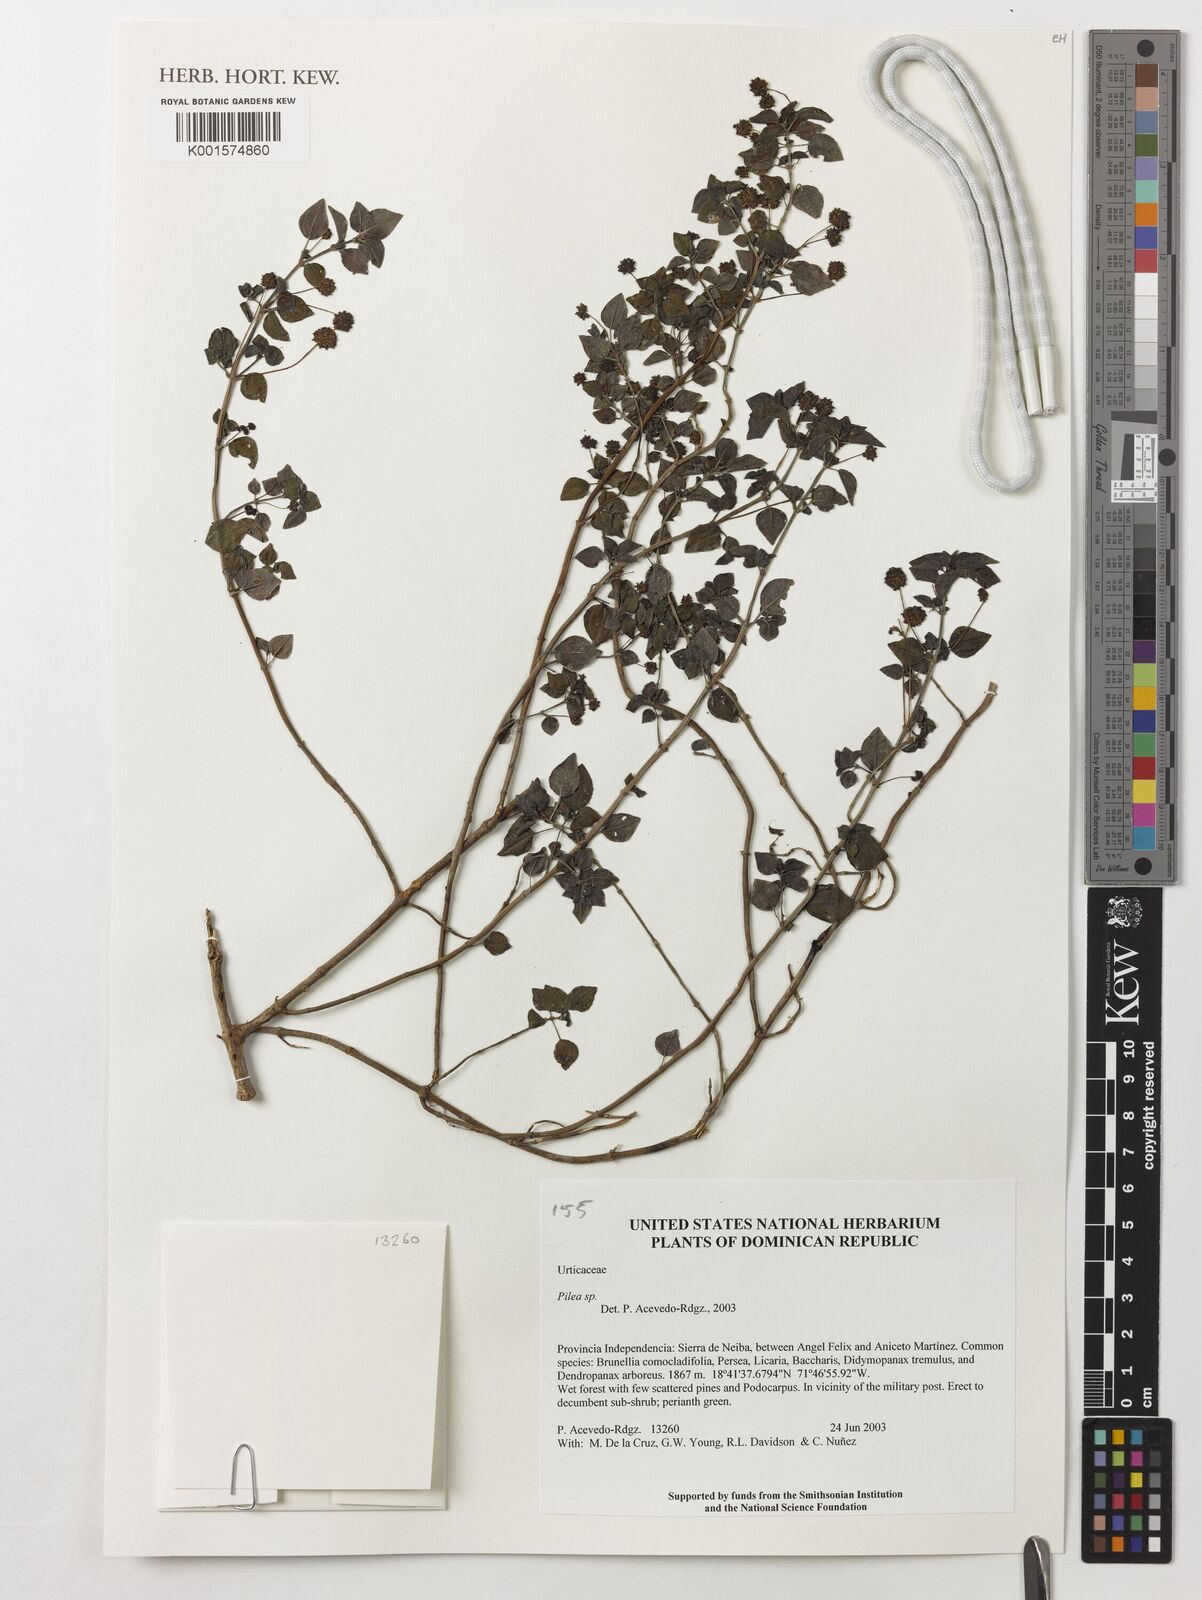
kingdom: Plantae
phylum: Tracheophyta
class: Magnoliopsida
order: Rosales
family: Urticaceae
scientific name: Urticaceae
